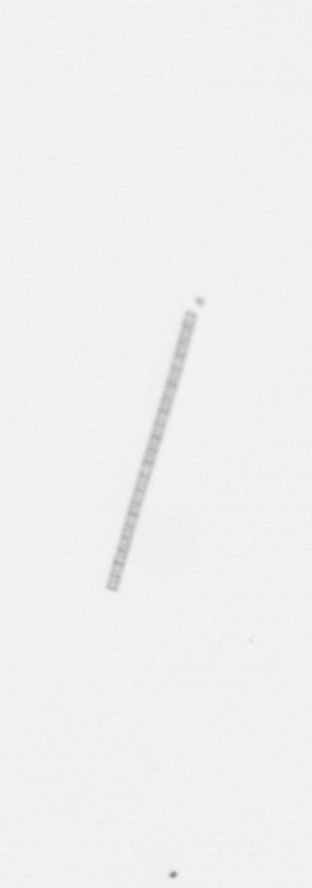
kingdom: Chromista
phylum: Ochrophyta
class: Bacillariophyceae
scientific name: Bacillariophyceae
